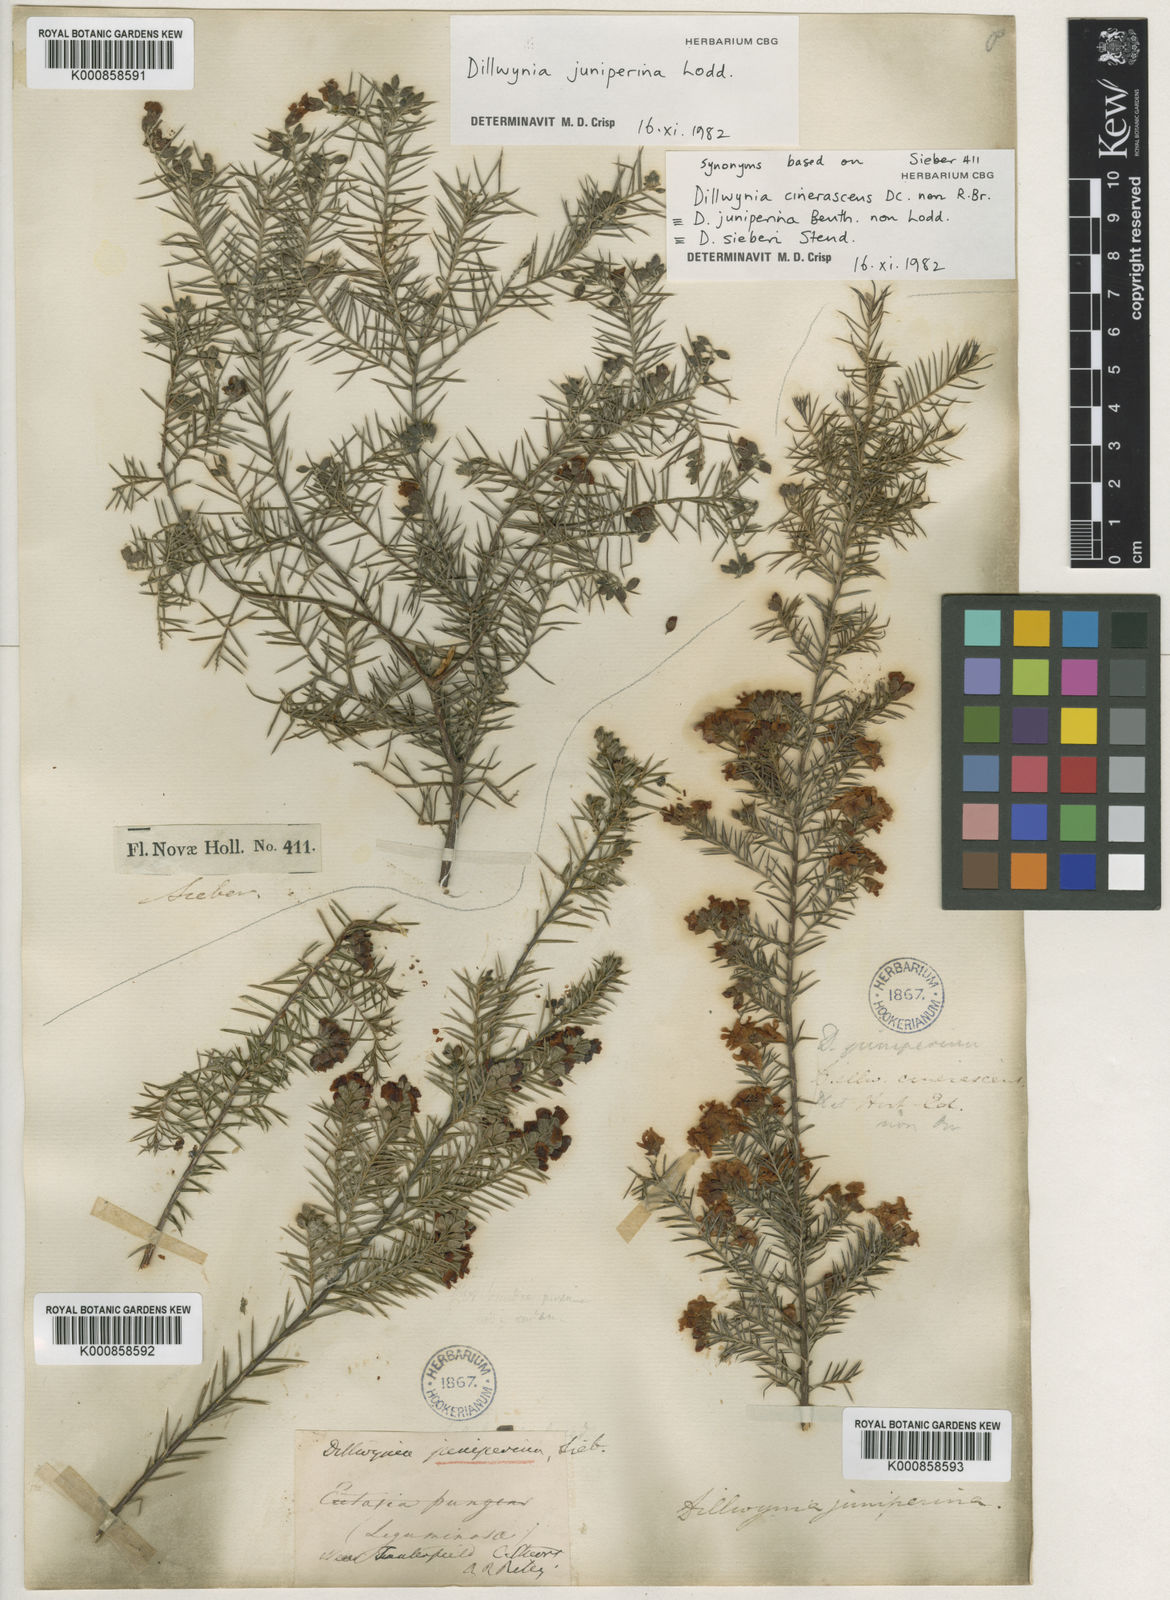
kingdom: Plantae
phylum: Tracheophyta
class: Magnoliopsida
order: Fabales
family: Fabaceae
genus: Dillwynia
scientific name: Dillwynia juniperina
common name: Prickly parrot pea
